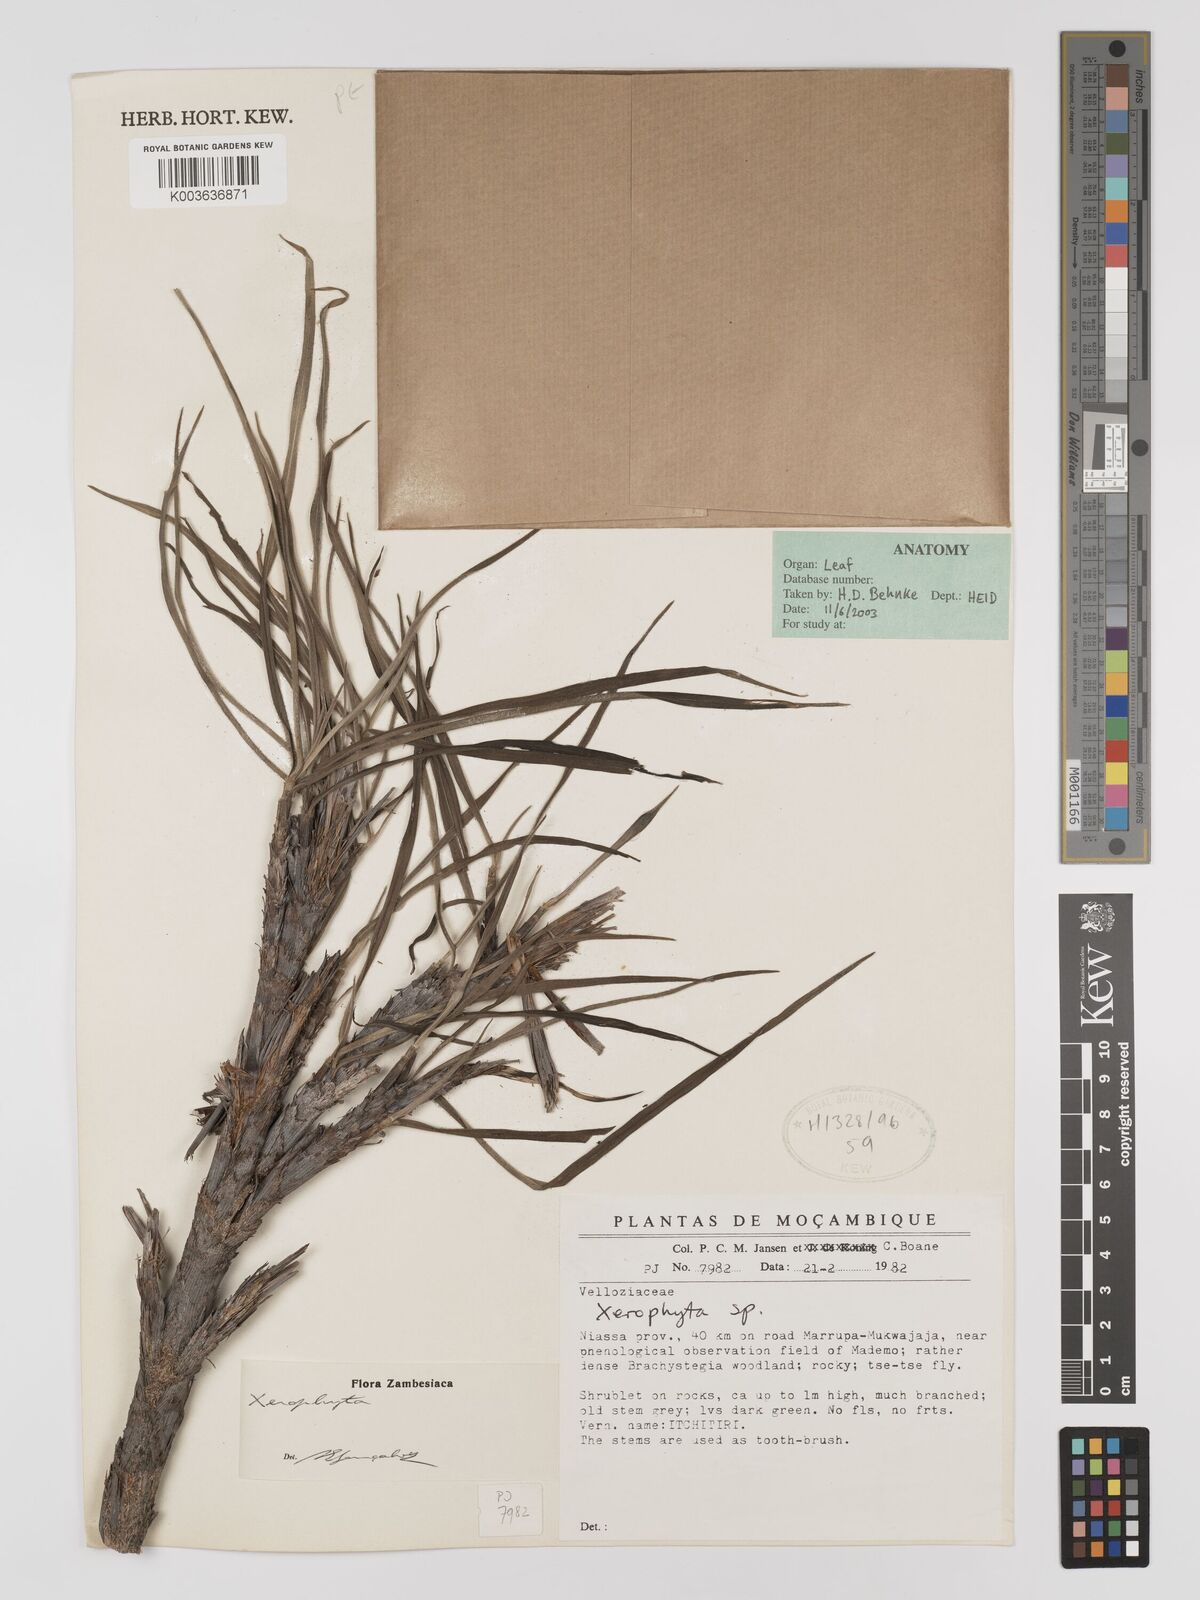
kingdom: Plantae
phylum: Tracheophyta
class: Liliopsida
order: Pandanales
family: Velloziaceae
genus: Xerophyta
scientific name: Xerophyta
